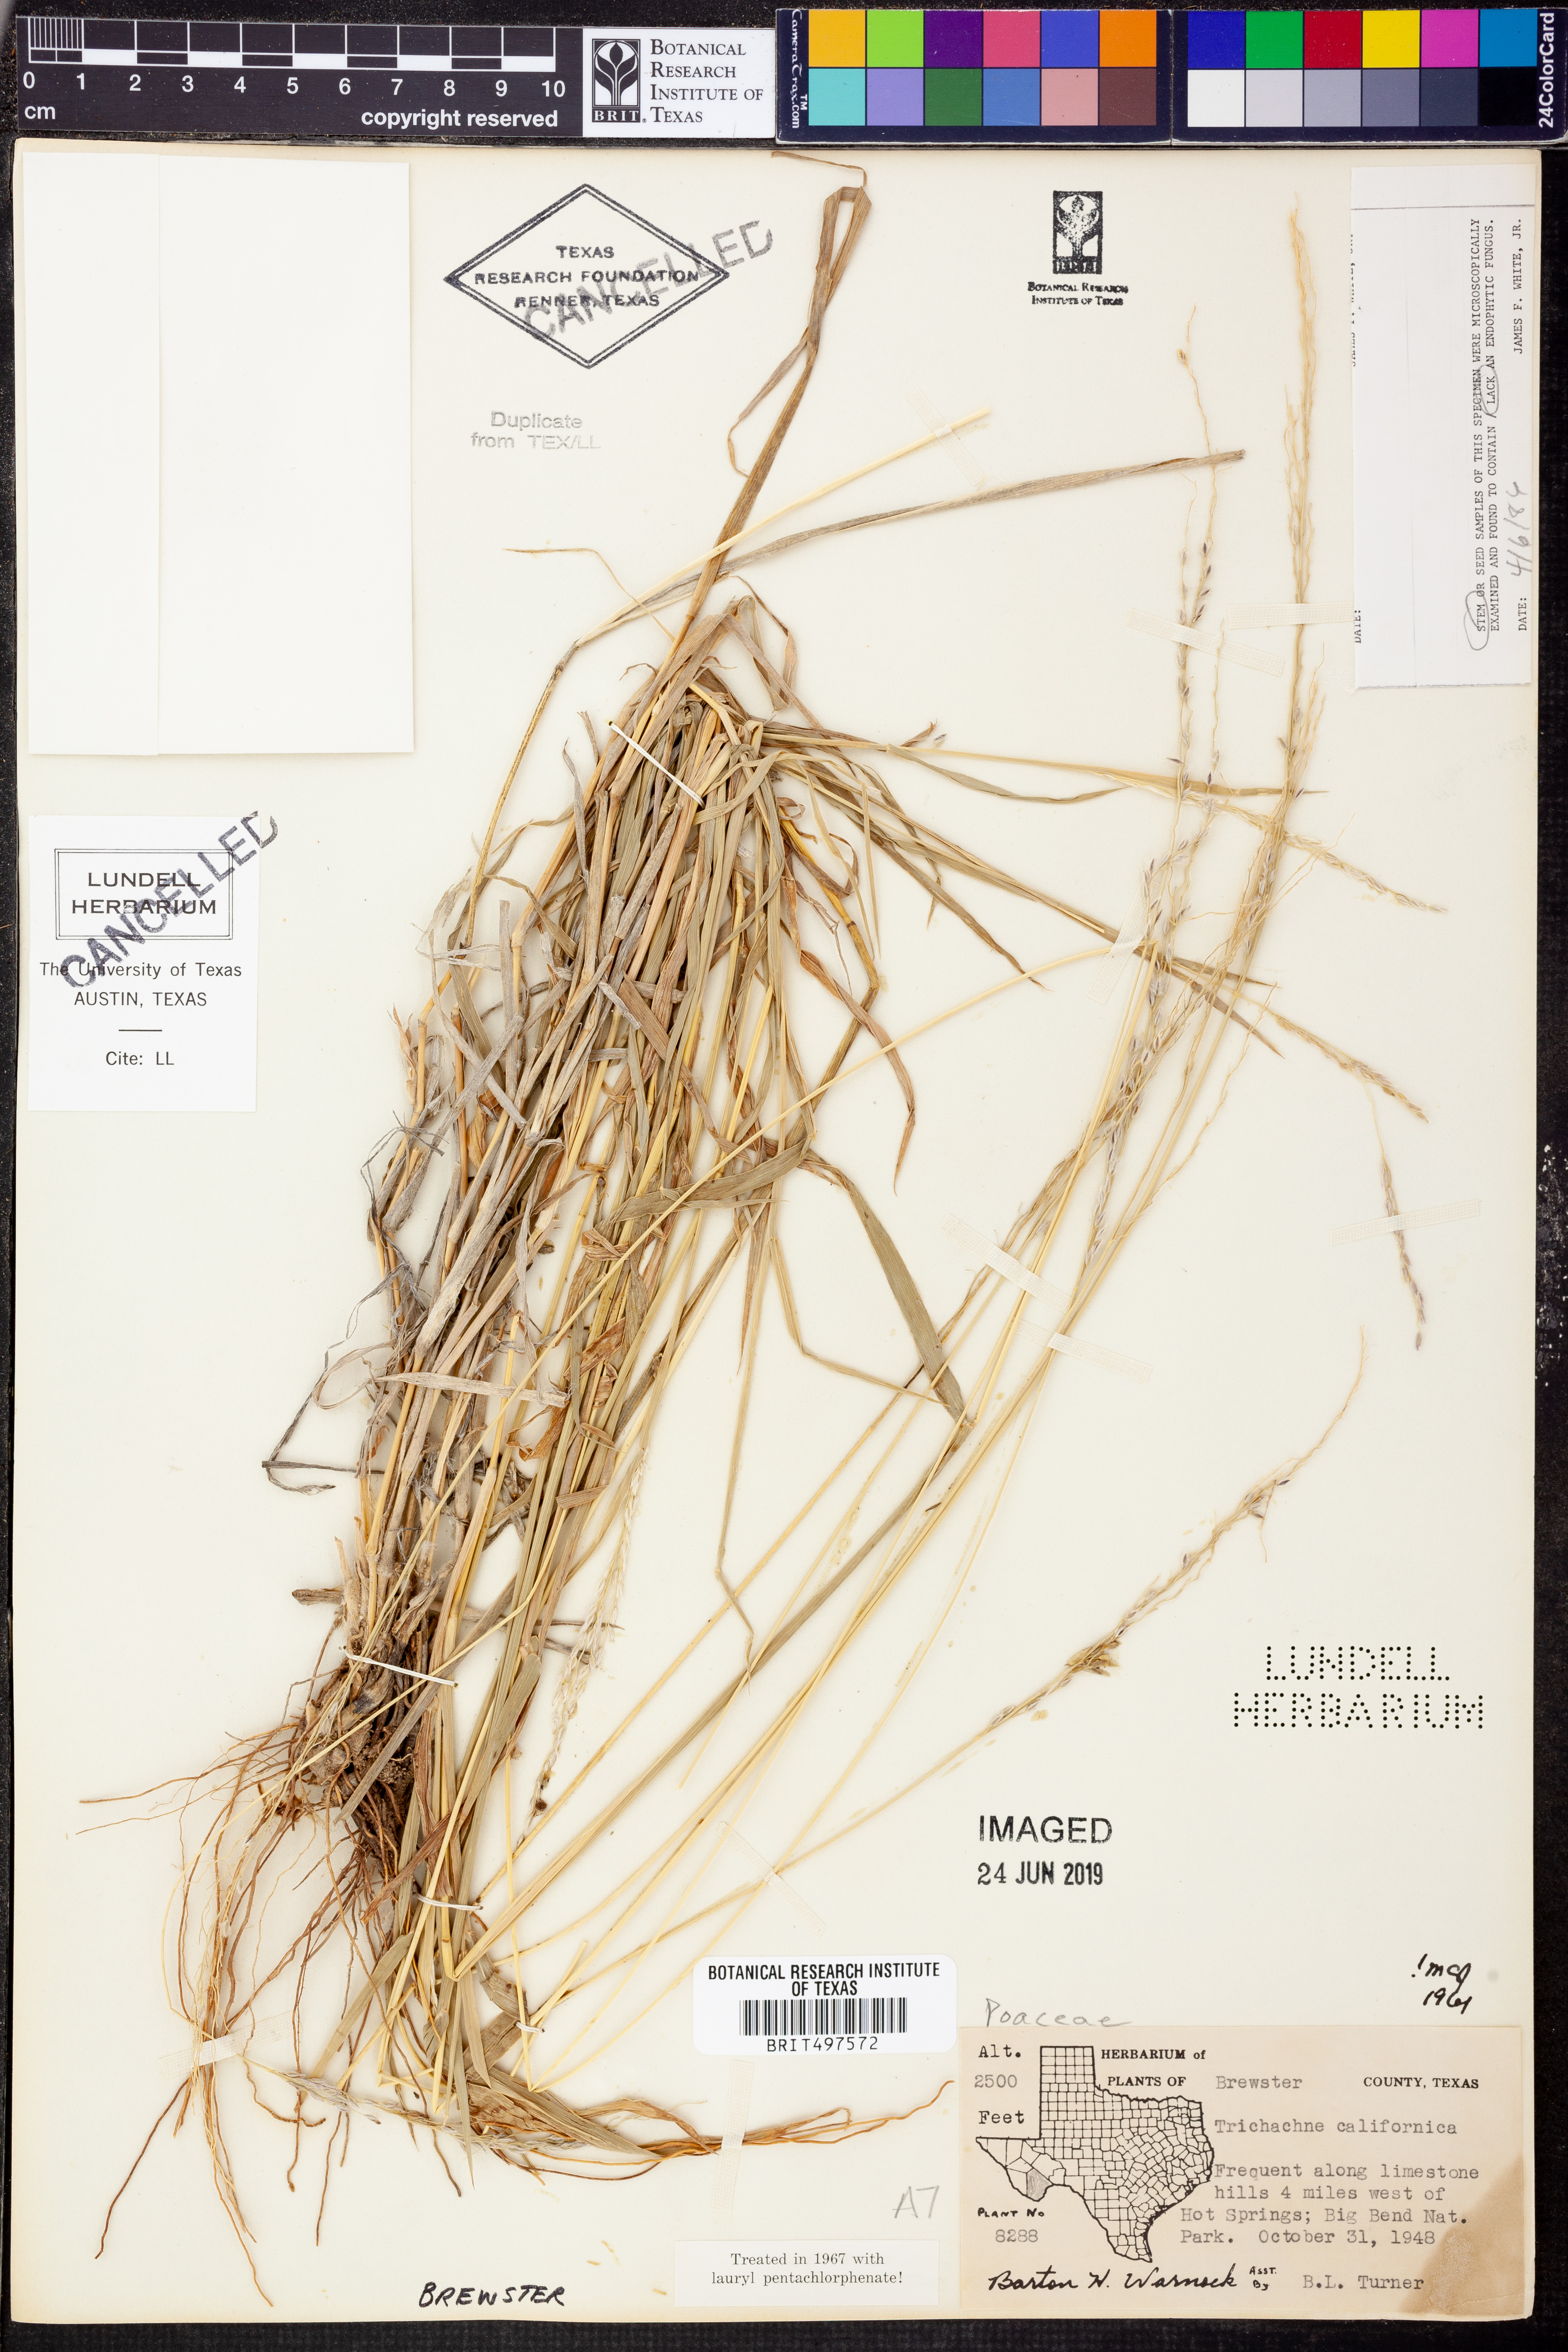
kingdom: Plantae
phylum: Tracheophyta
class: Liliopsida
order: Poales
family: Poaceae
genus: Digitaria
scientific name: Digitaria californica
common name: Arizona cottontop
